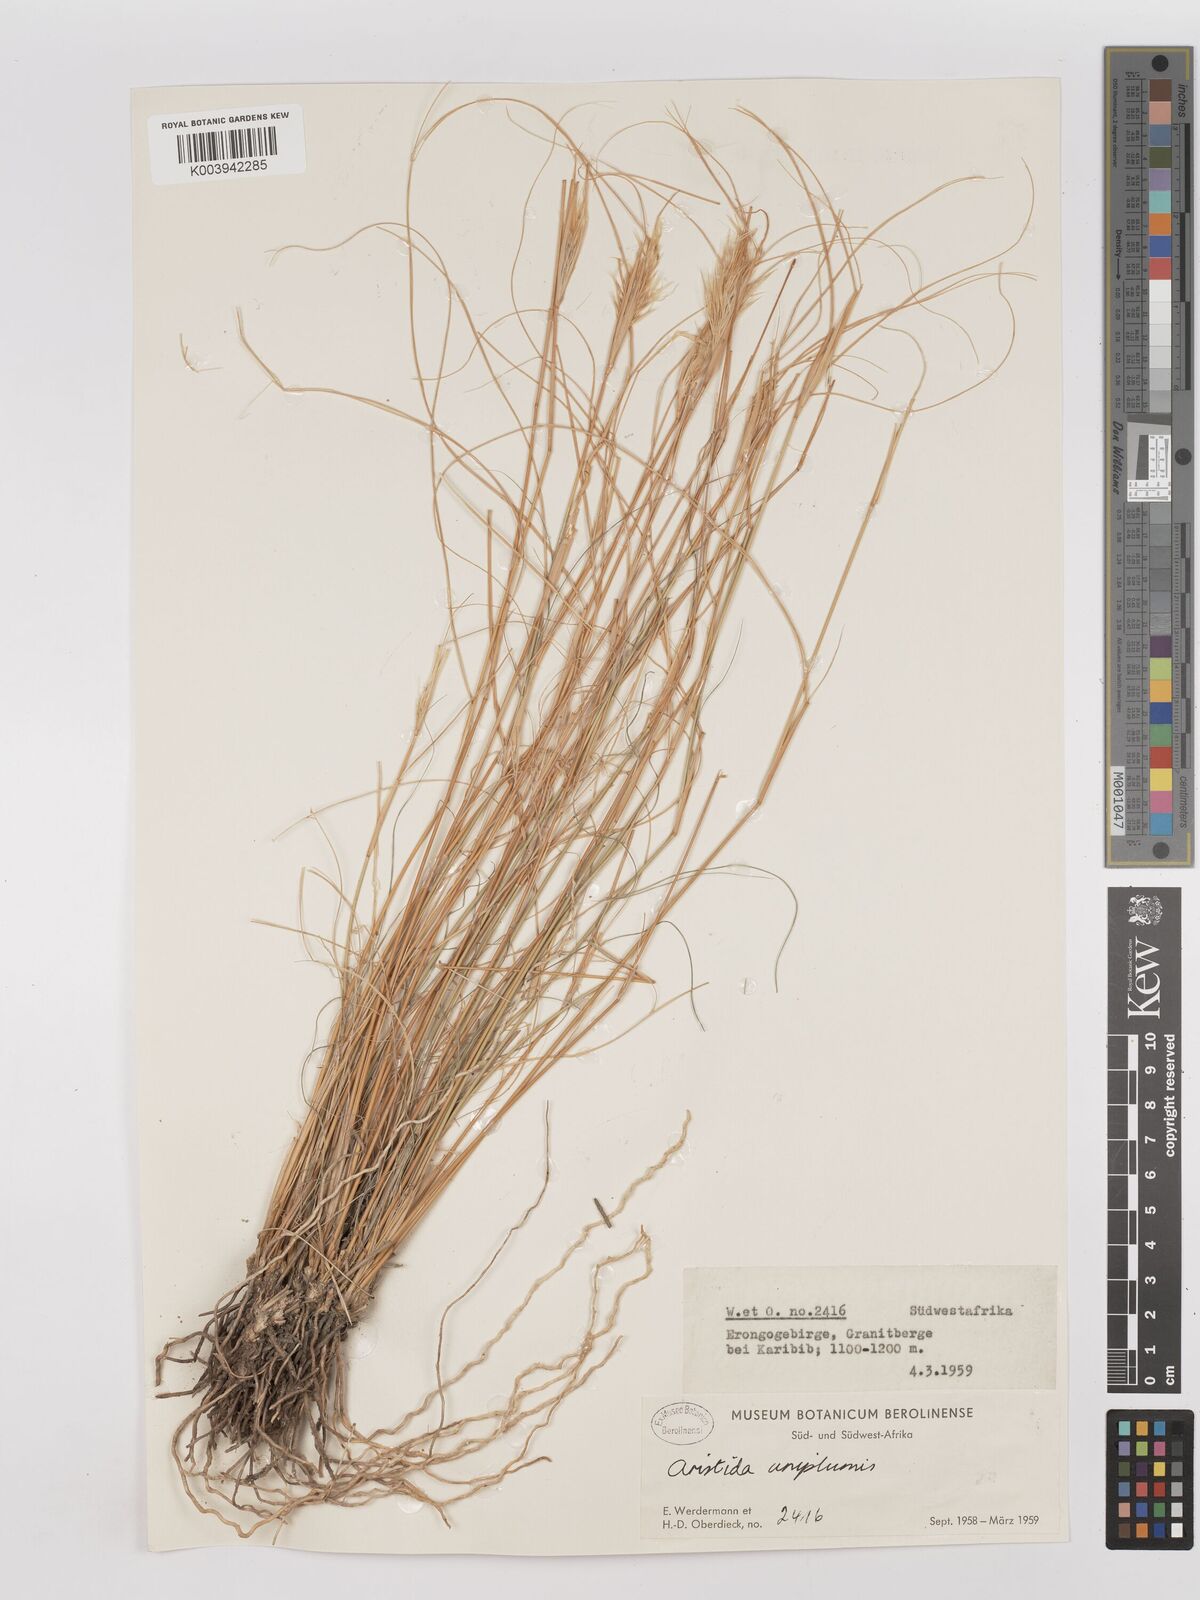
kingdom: Plantae
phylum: Tracheophyta
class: Liliopsida
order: Poales
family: Poaceae
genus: Stipagrostis
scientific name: Stipagrostis uniplumis
